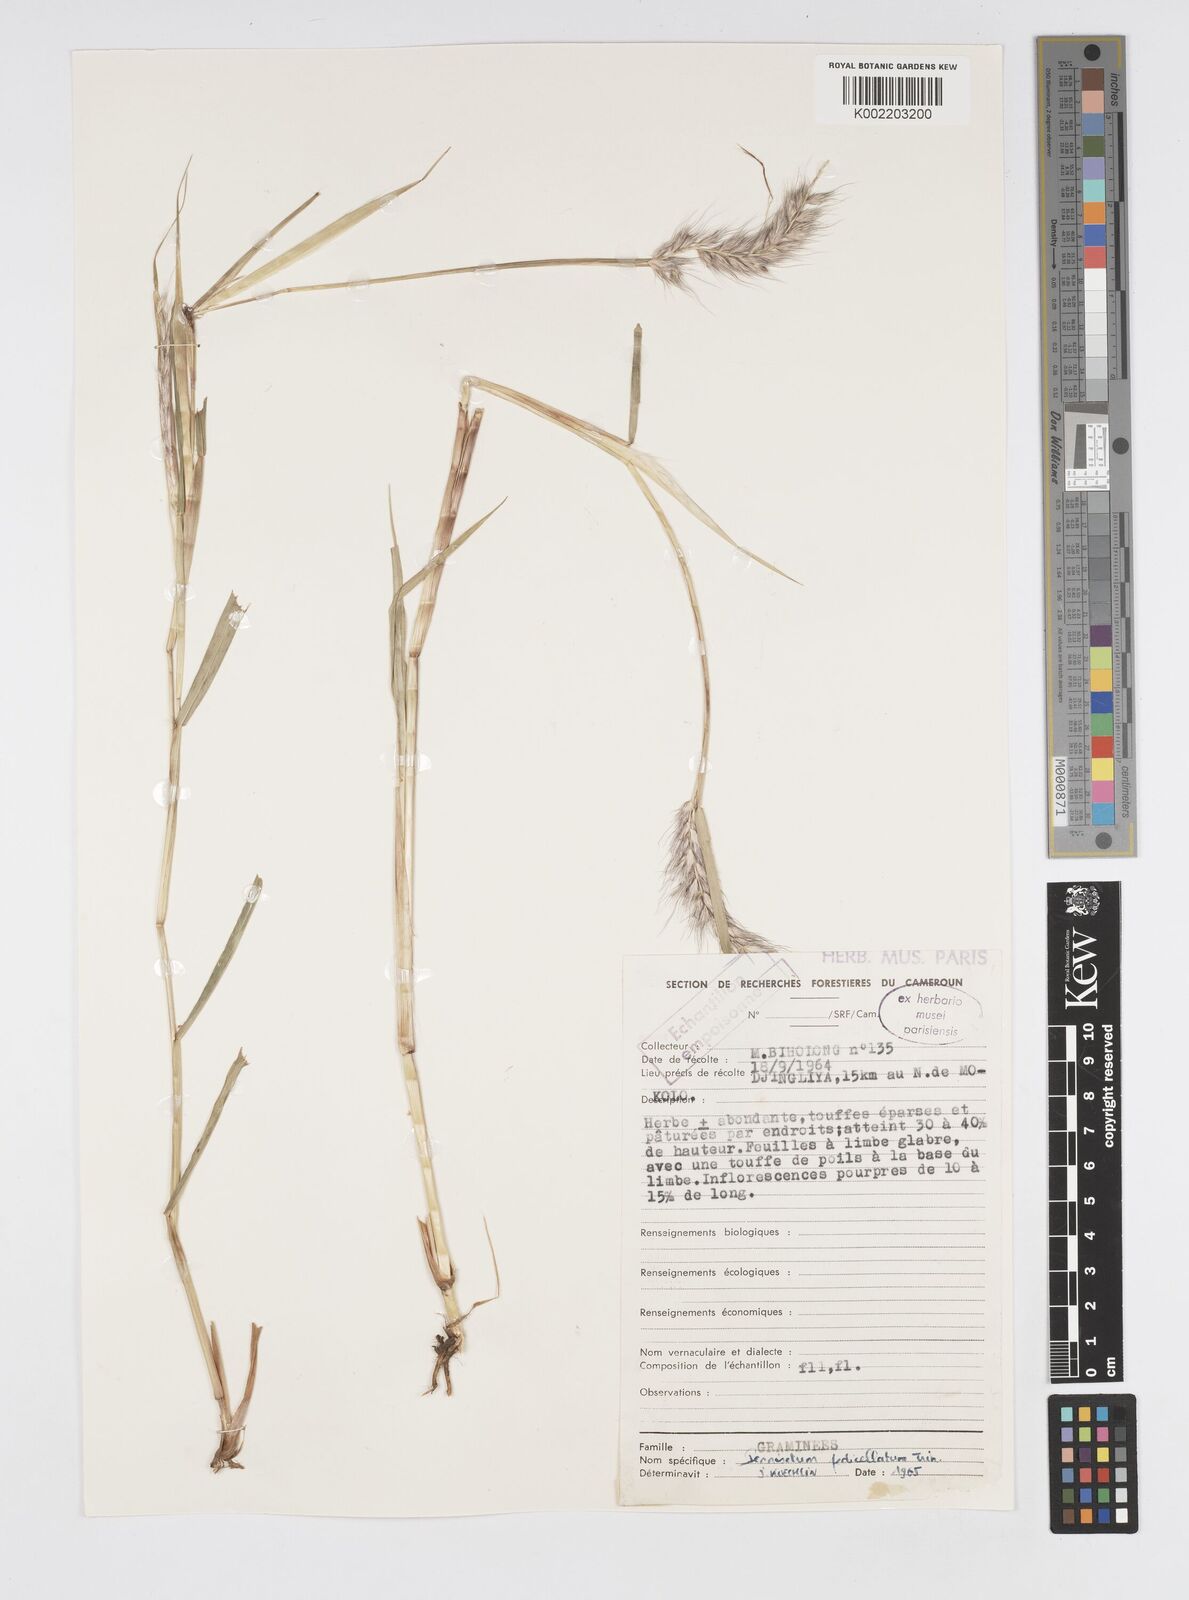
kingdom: Plantae
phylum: Tracheophyta
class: Liliopsida
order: Poales
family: Poaceae
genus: Cenchrus
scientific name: Cenchrus pedicellatus
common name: Hairy fountain grass
